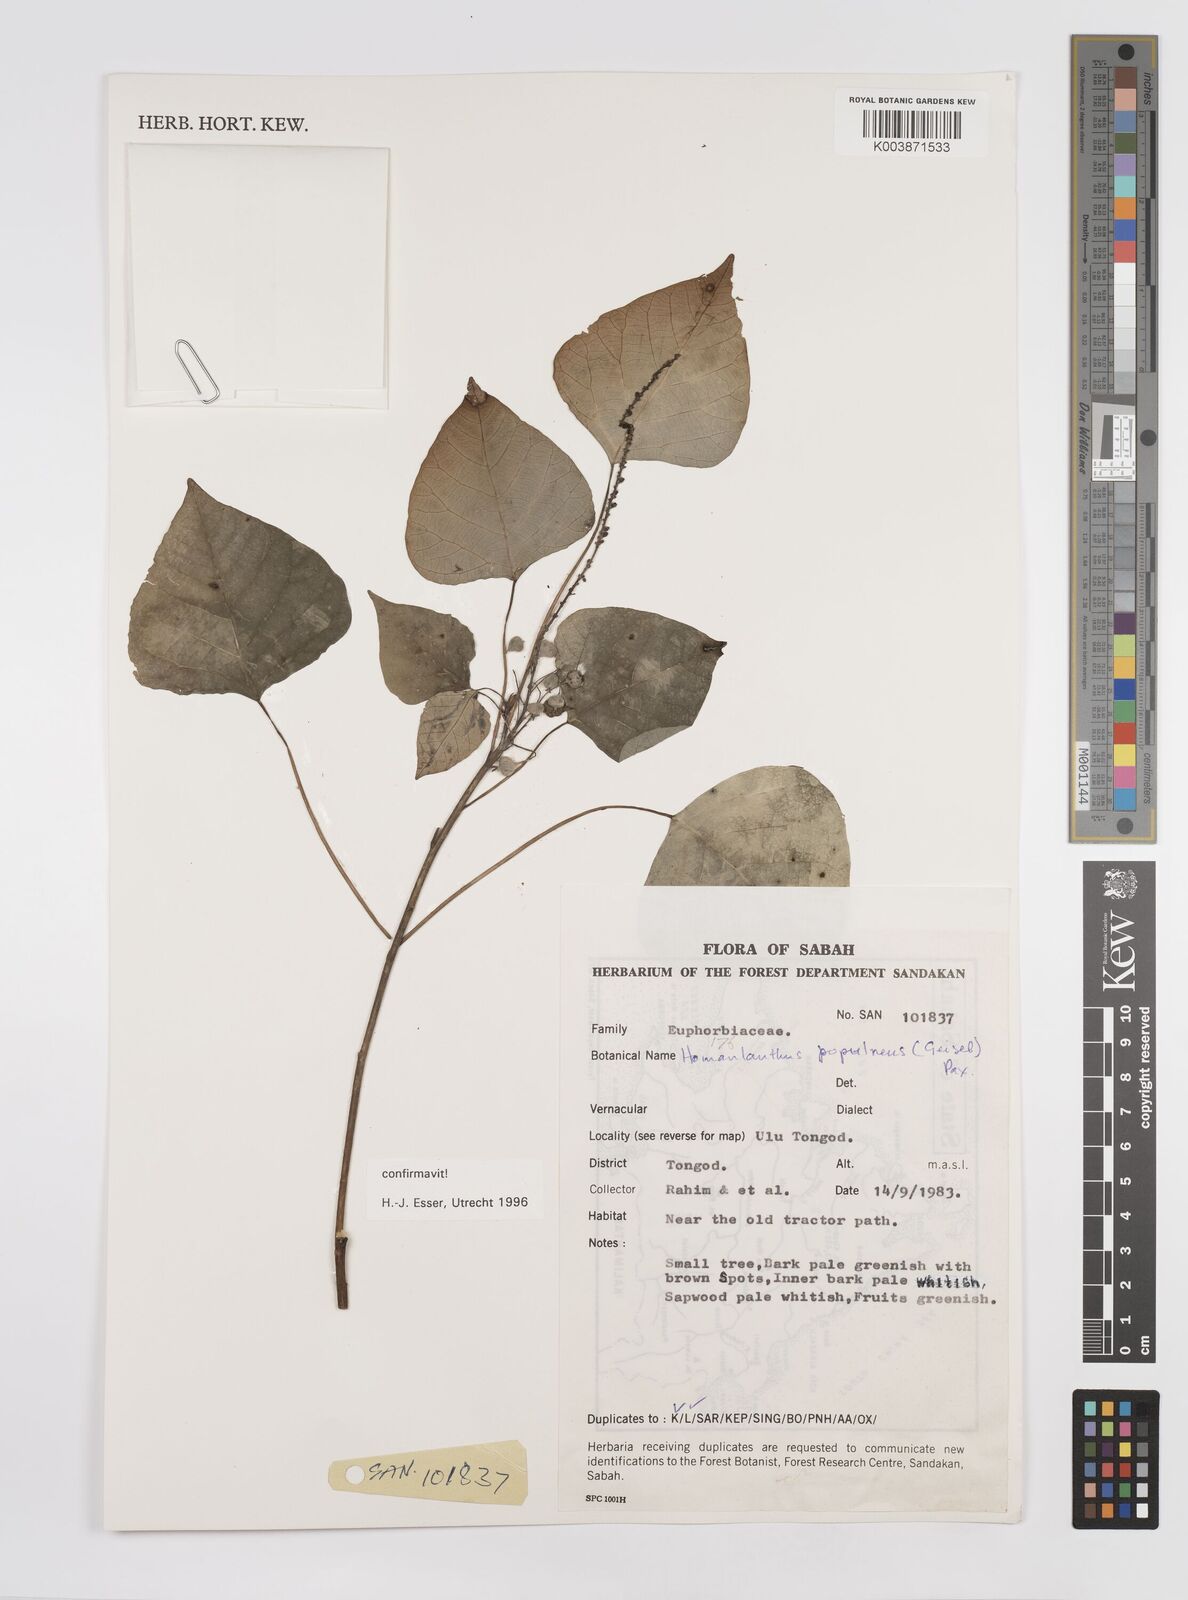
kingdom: Plantae
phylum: Tracheophyta
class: Magnoliopsida
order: Malpighiales
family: Euphorbiaceae
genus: Homalanthus
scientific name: Homalanthus populneus
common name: Spurge
